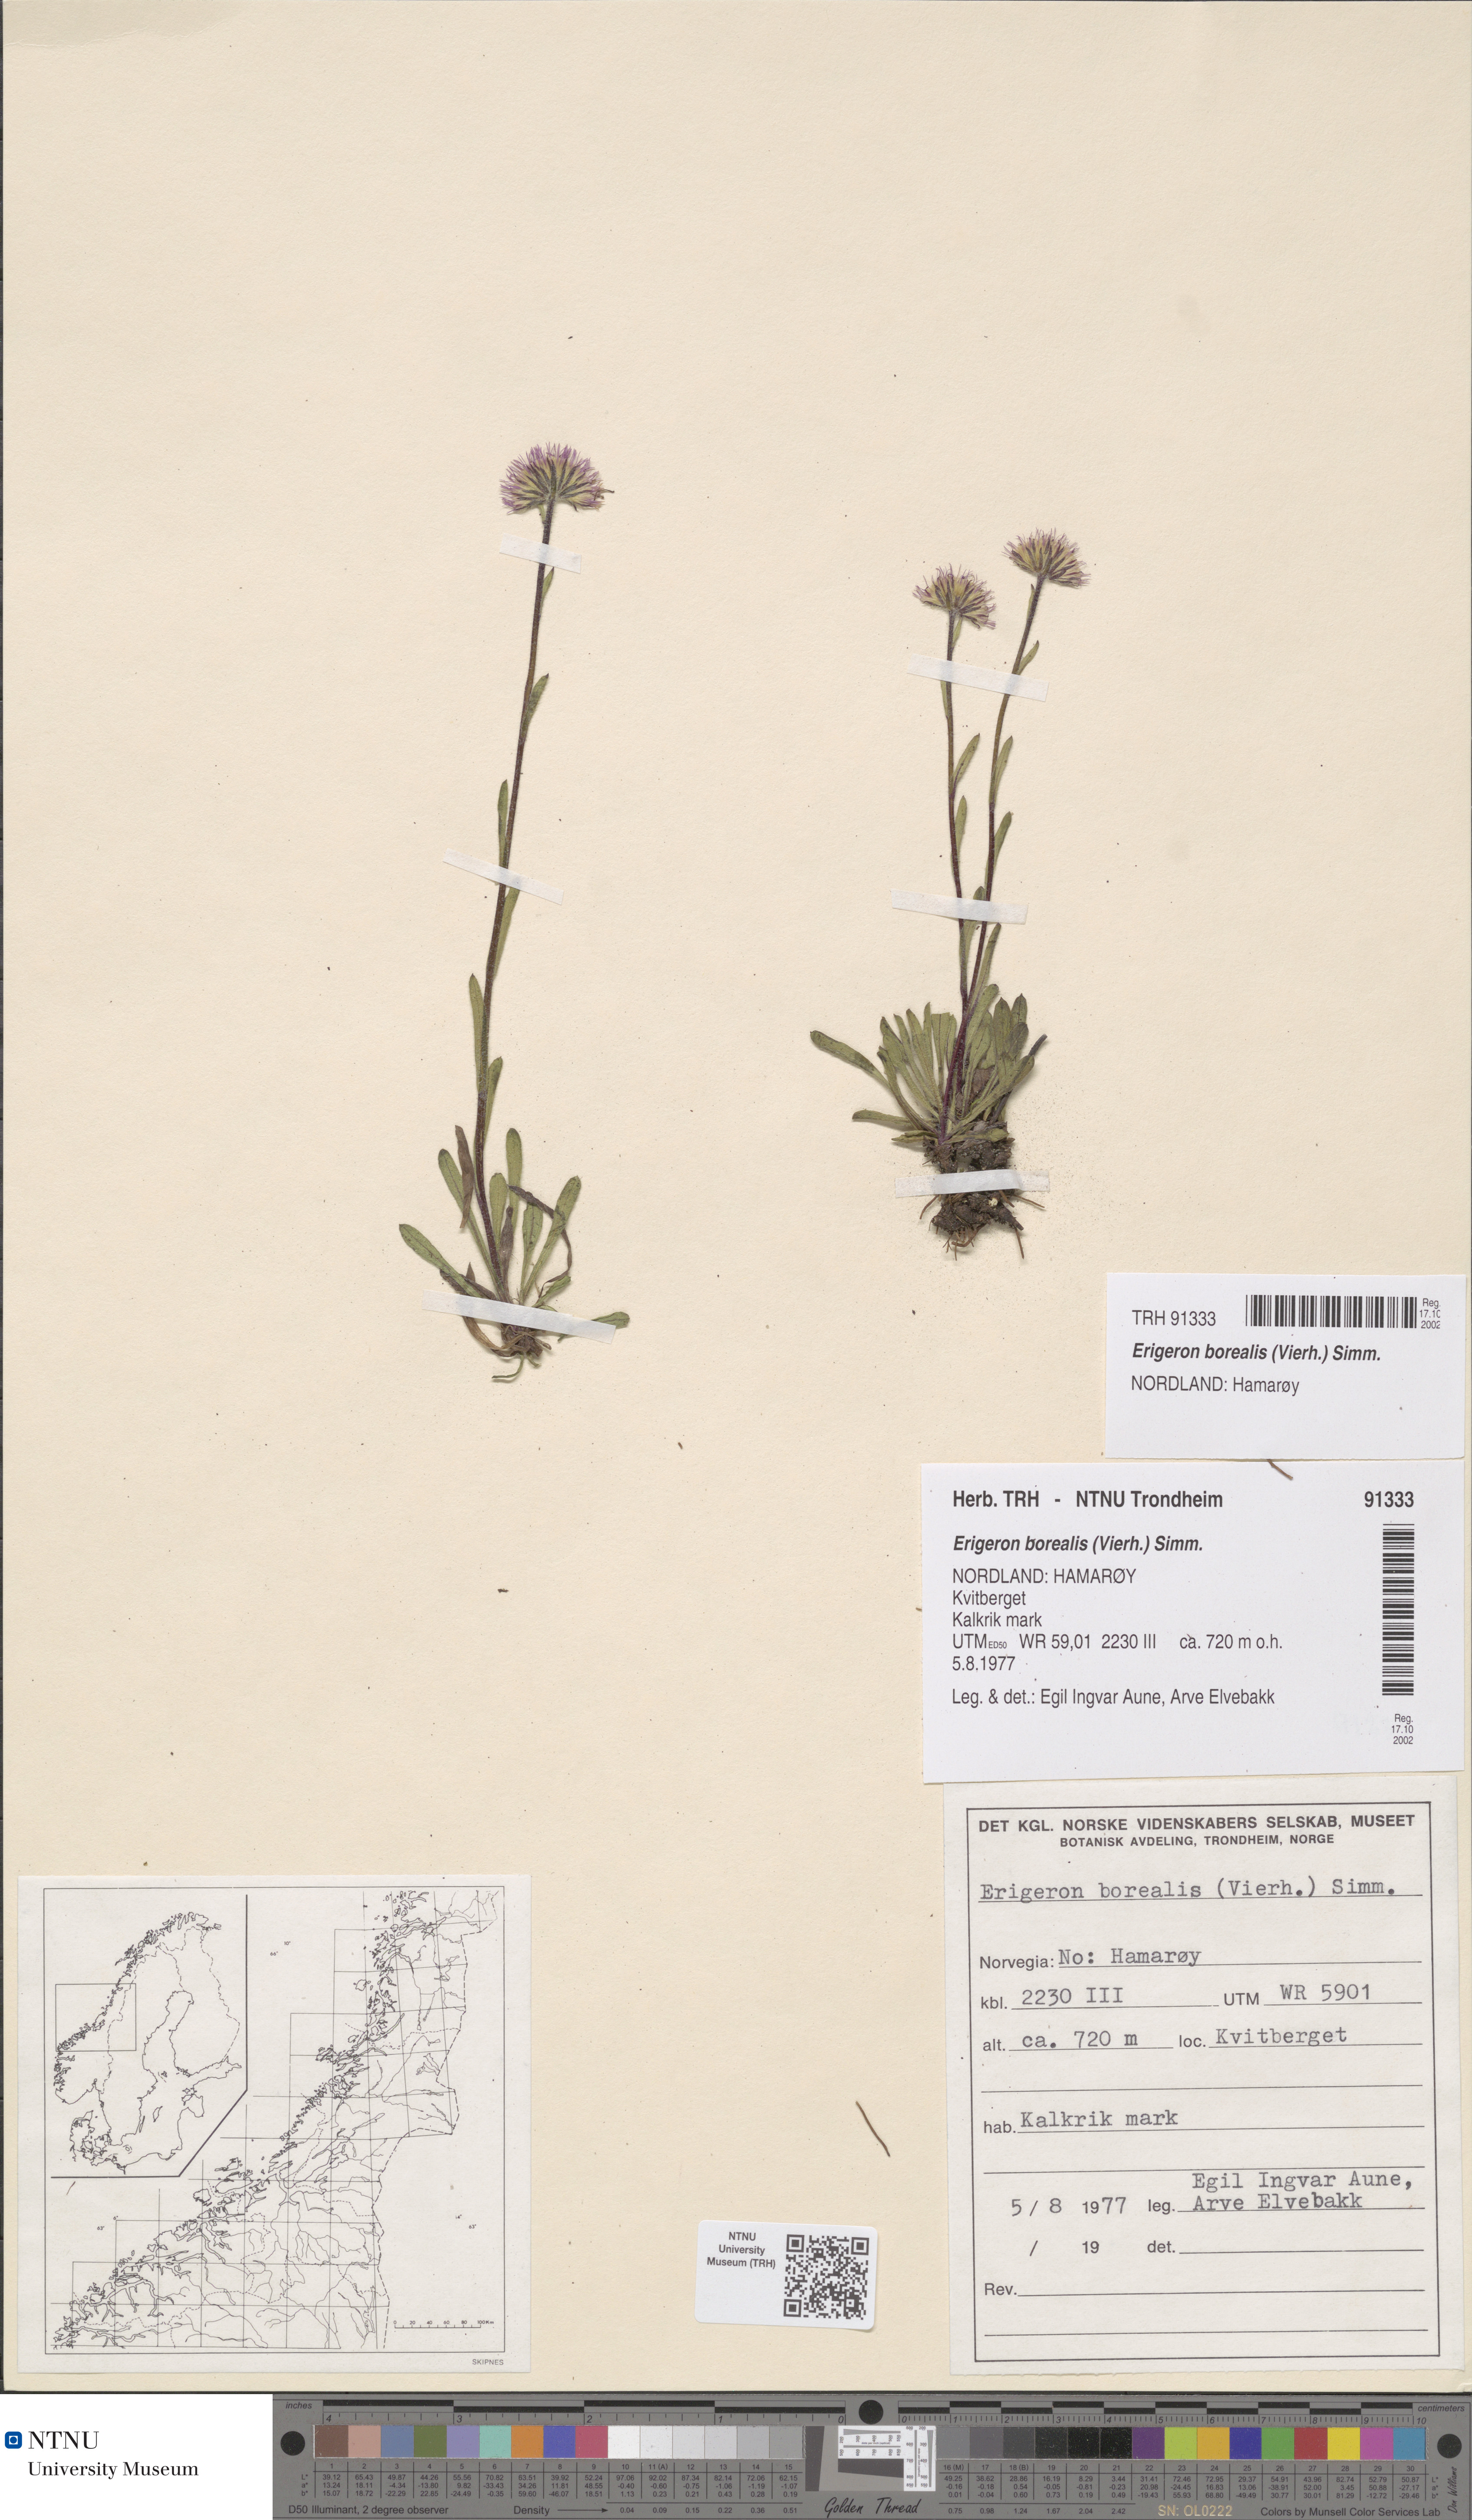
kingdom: Plantae
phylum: Tracheophyta
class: Magnoliopsida
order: Asterales
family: Asteraceae
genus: Erigeron
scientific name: Erigeron borealis
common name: Alpine fleabane
